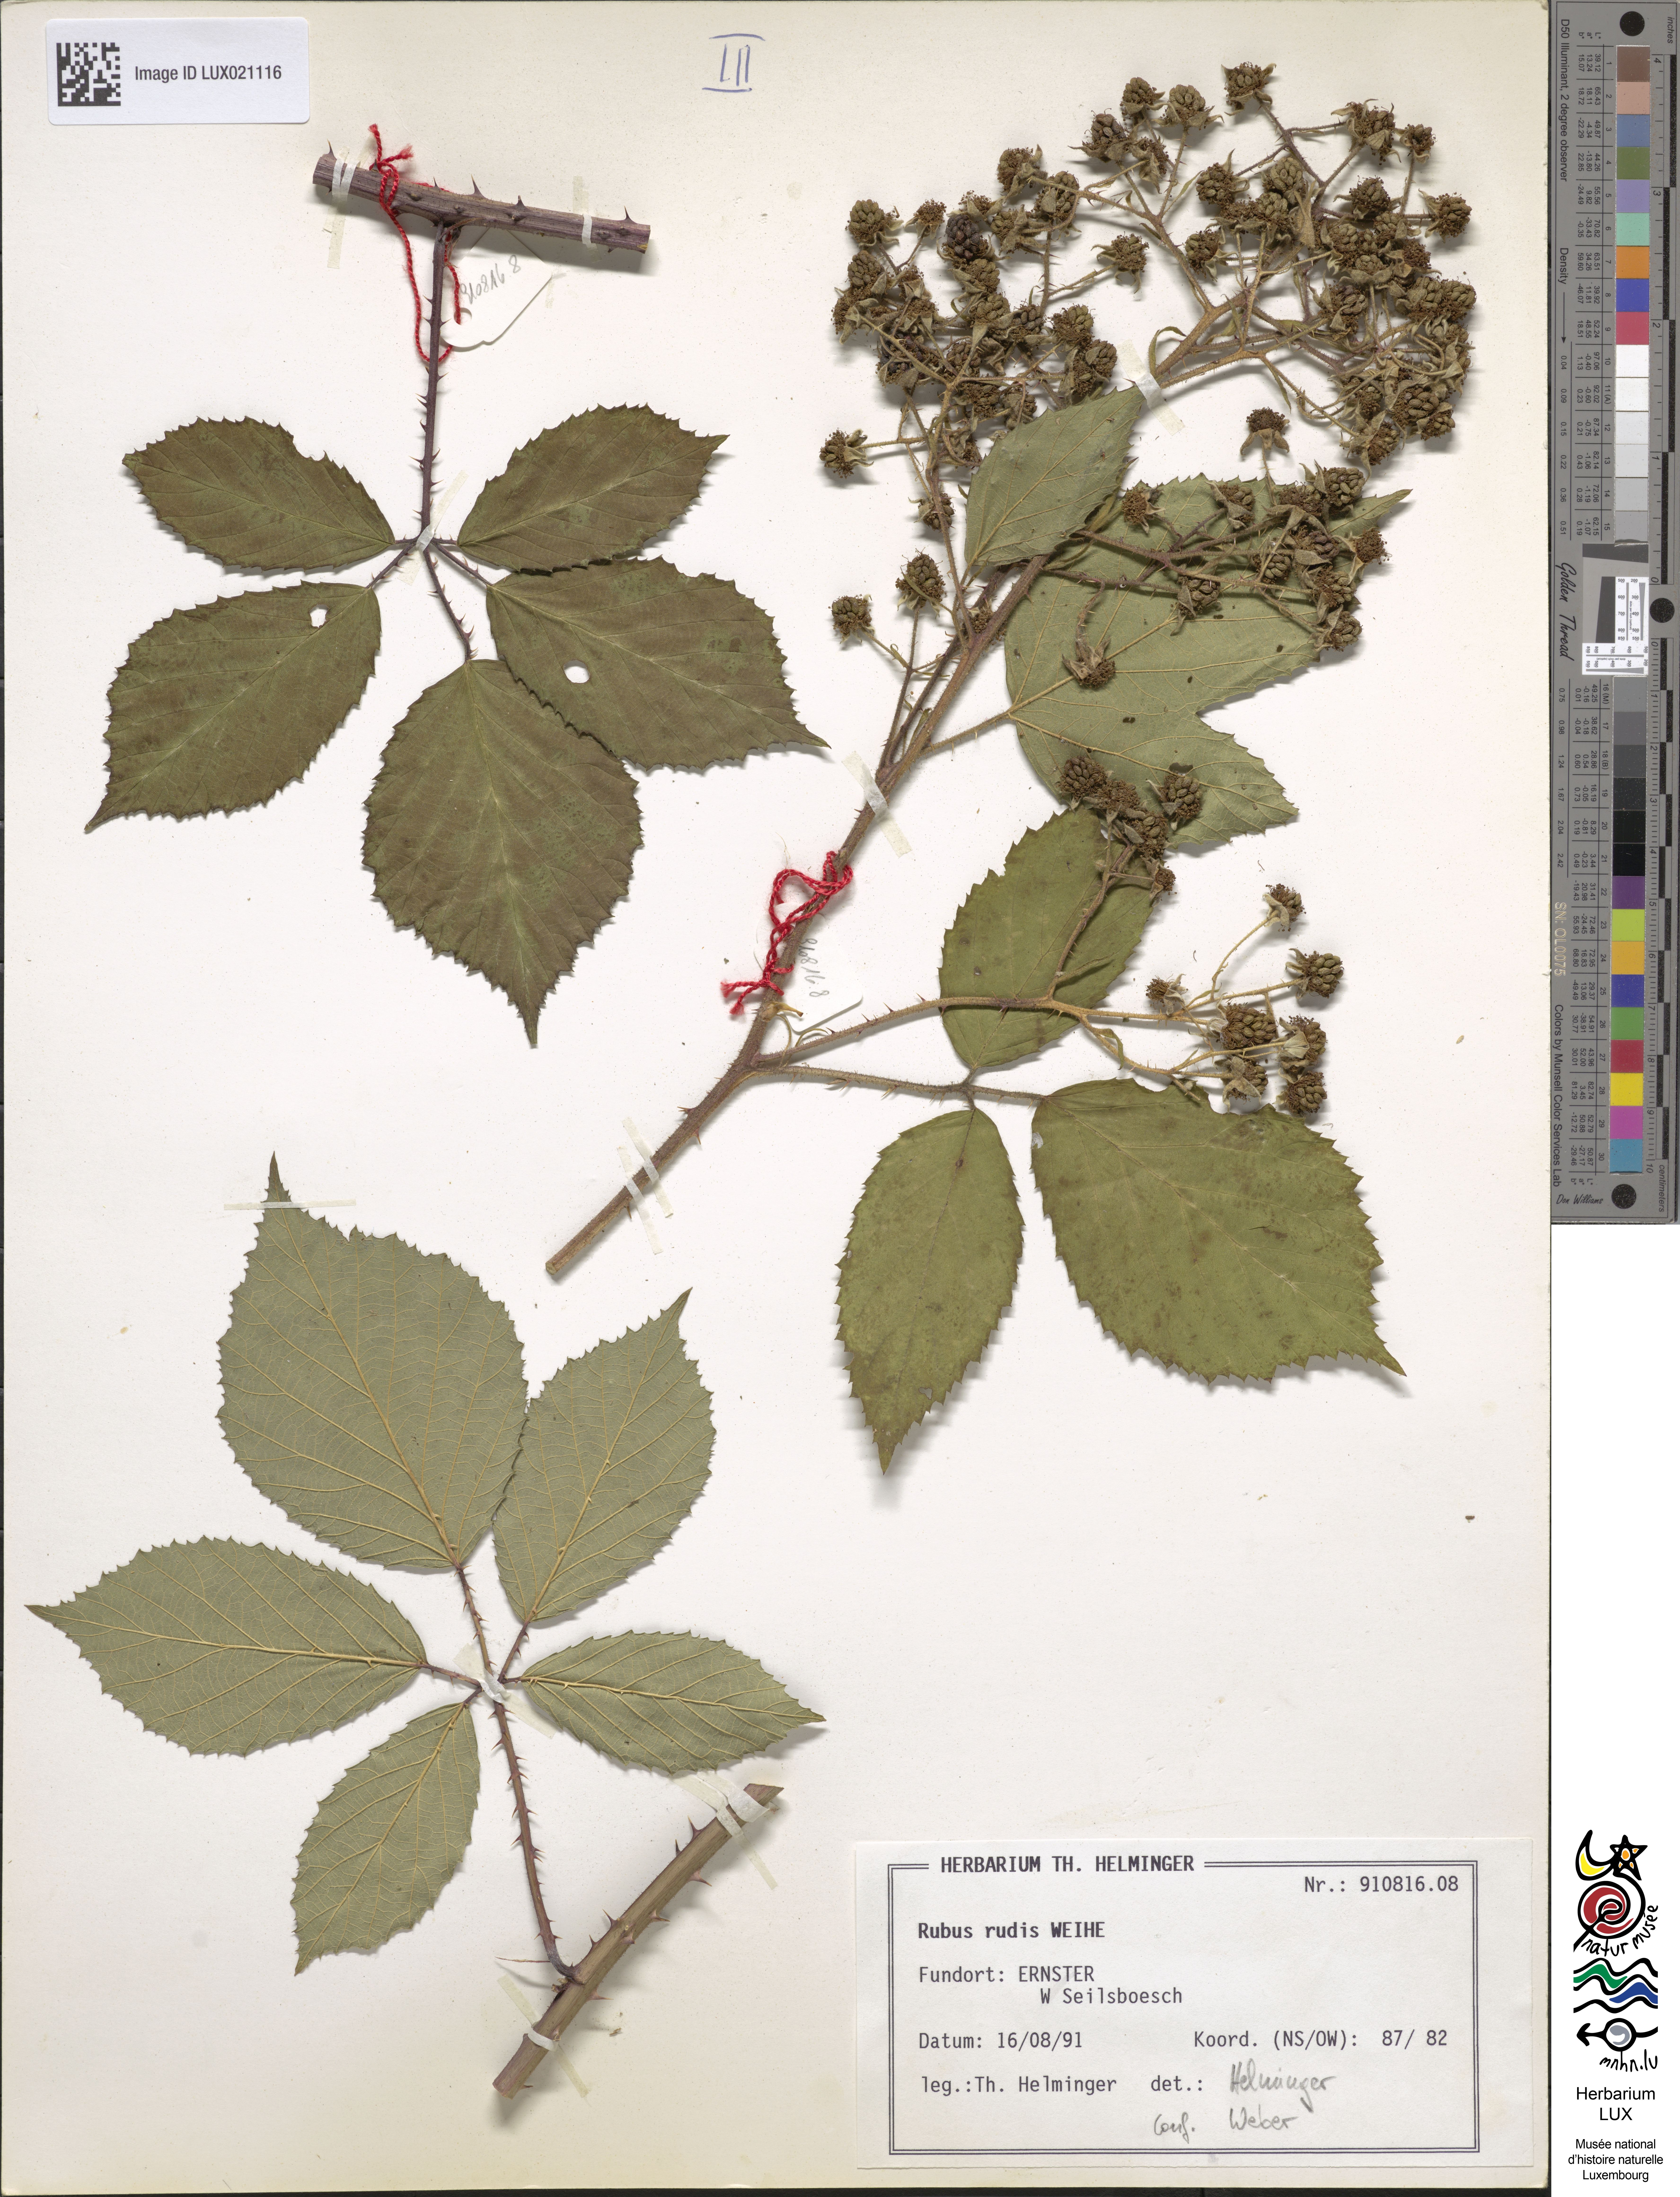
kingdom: Plantae
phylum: Tracheophyta
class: Magnoliopsida
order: Rosales
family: Rosaceae
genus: Rubus
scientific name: Rubus rudis
